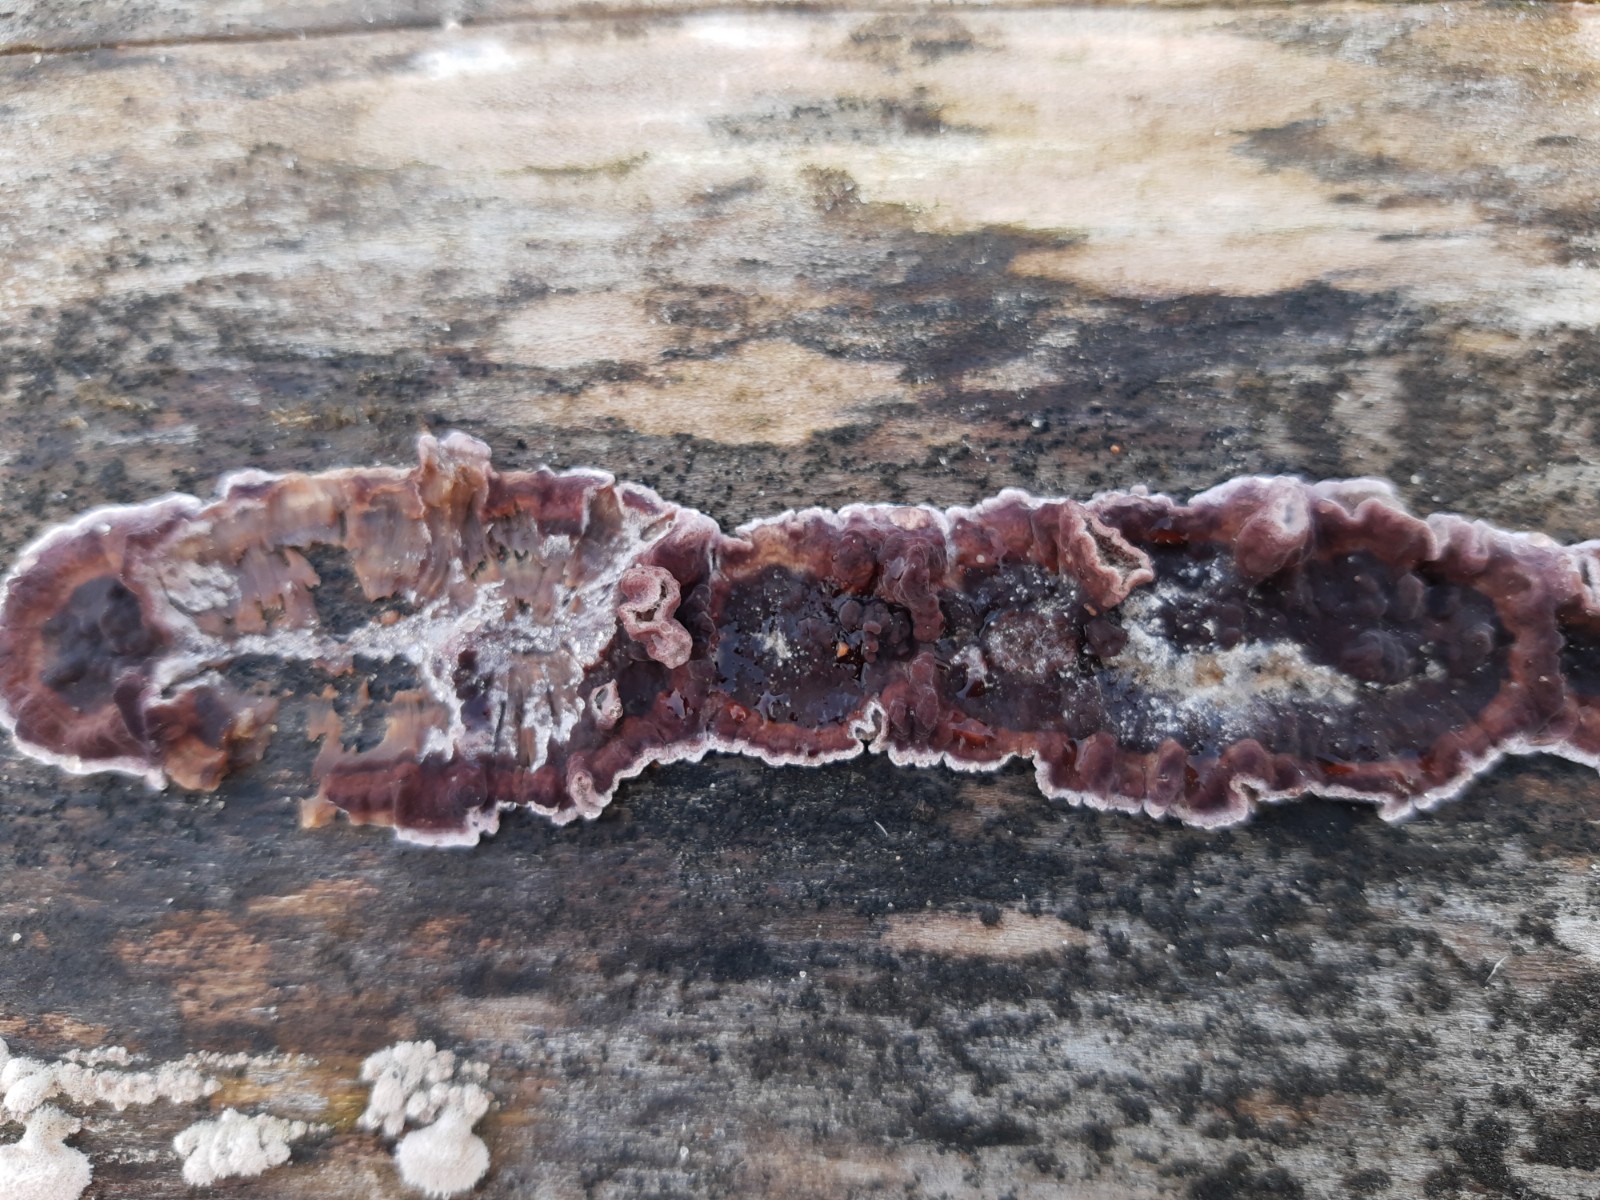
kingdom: Fungi
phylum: Basidiomycota
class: Agaricomycetes
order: Agaricales
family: Cyphellaceae
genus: Chondrostereum
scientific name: Chondrostereum purpureum
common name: purpurlædersvamp
